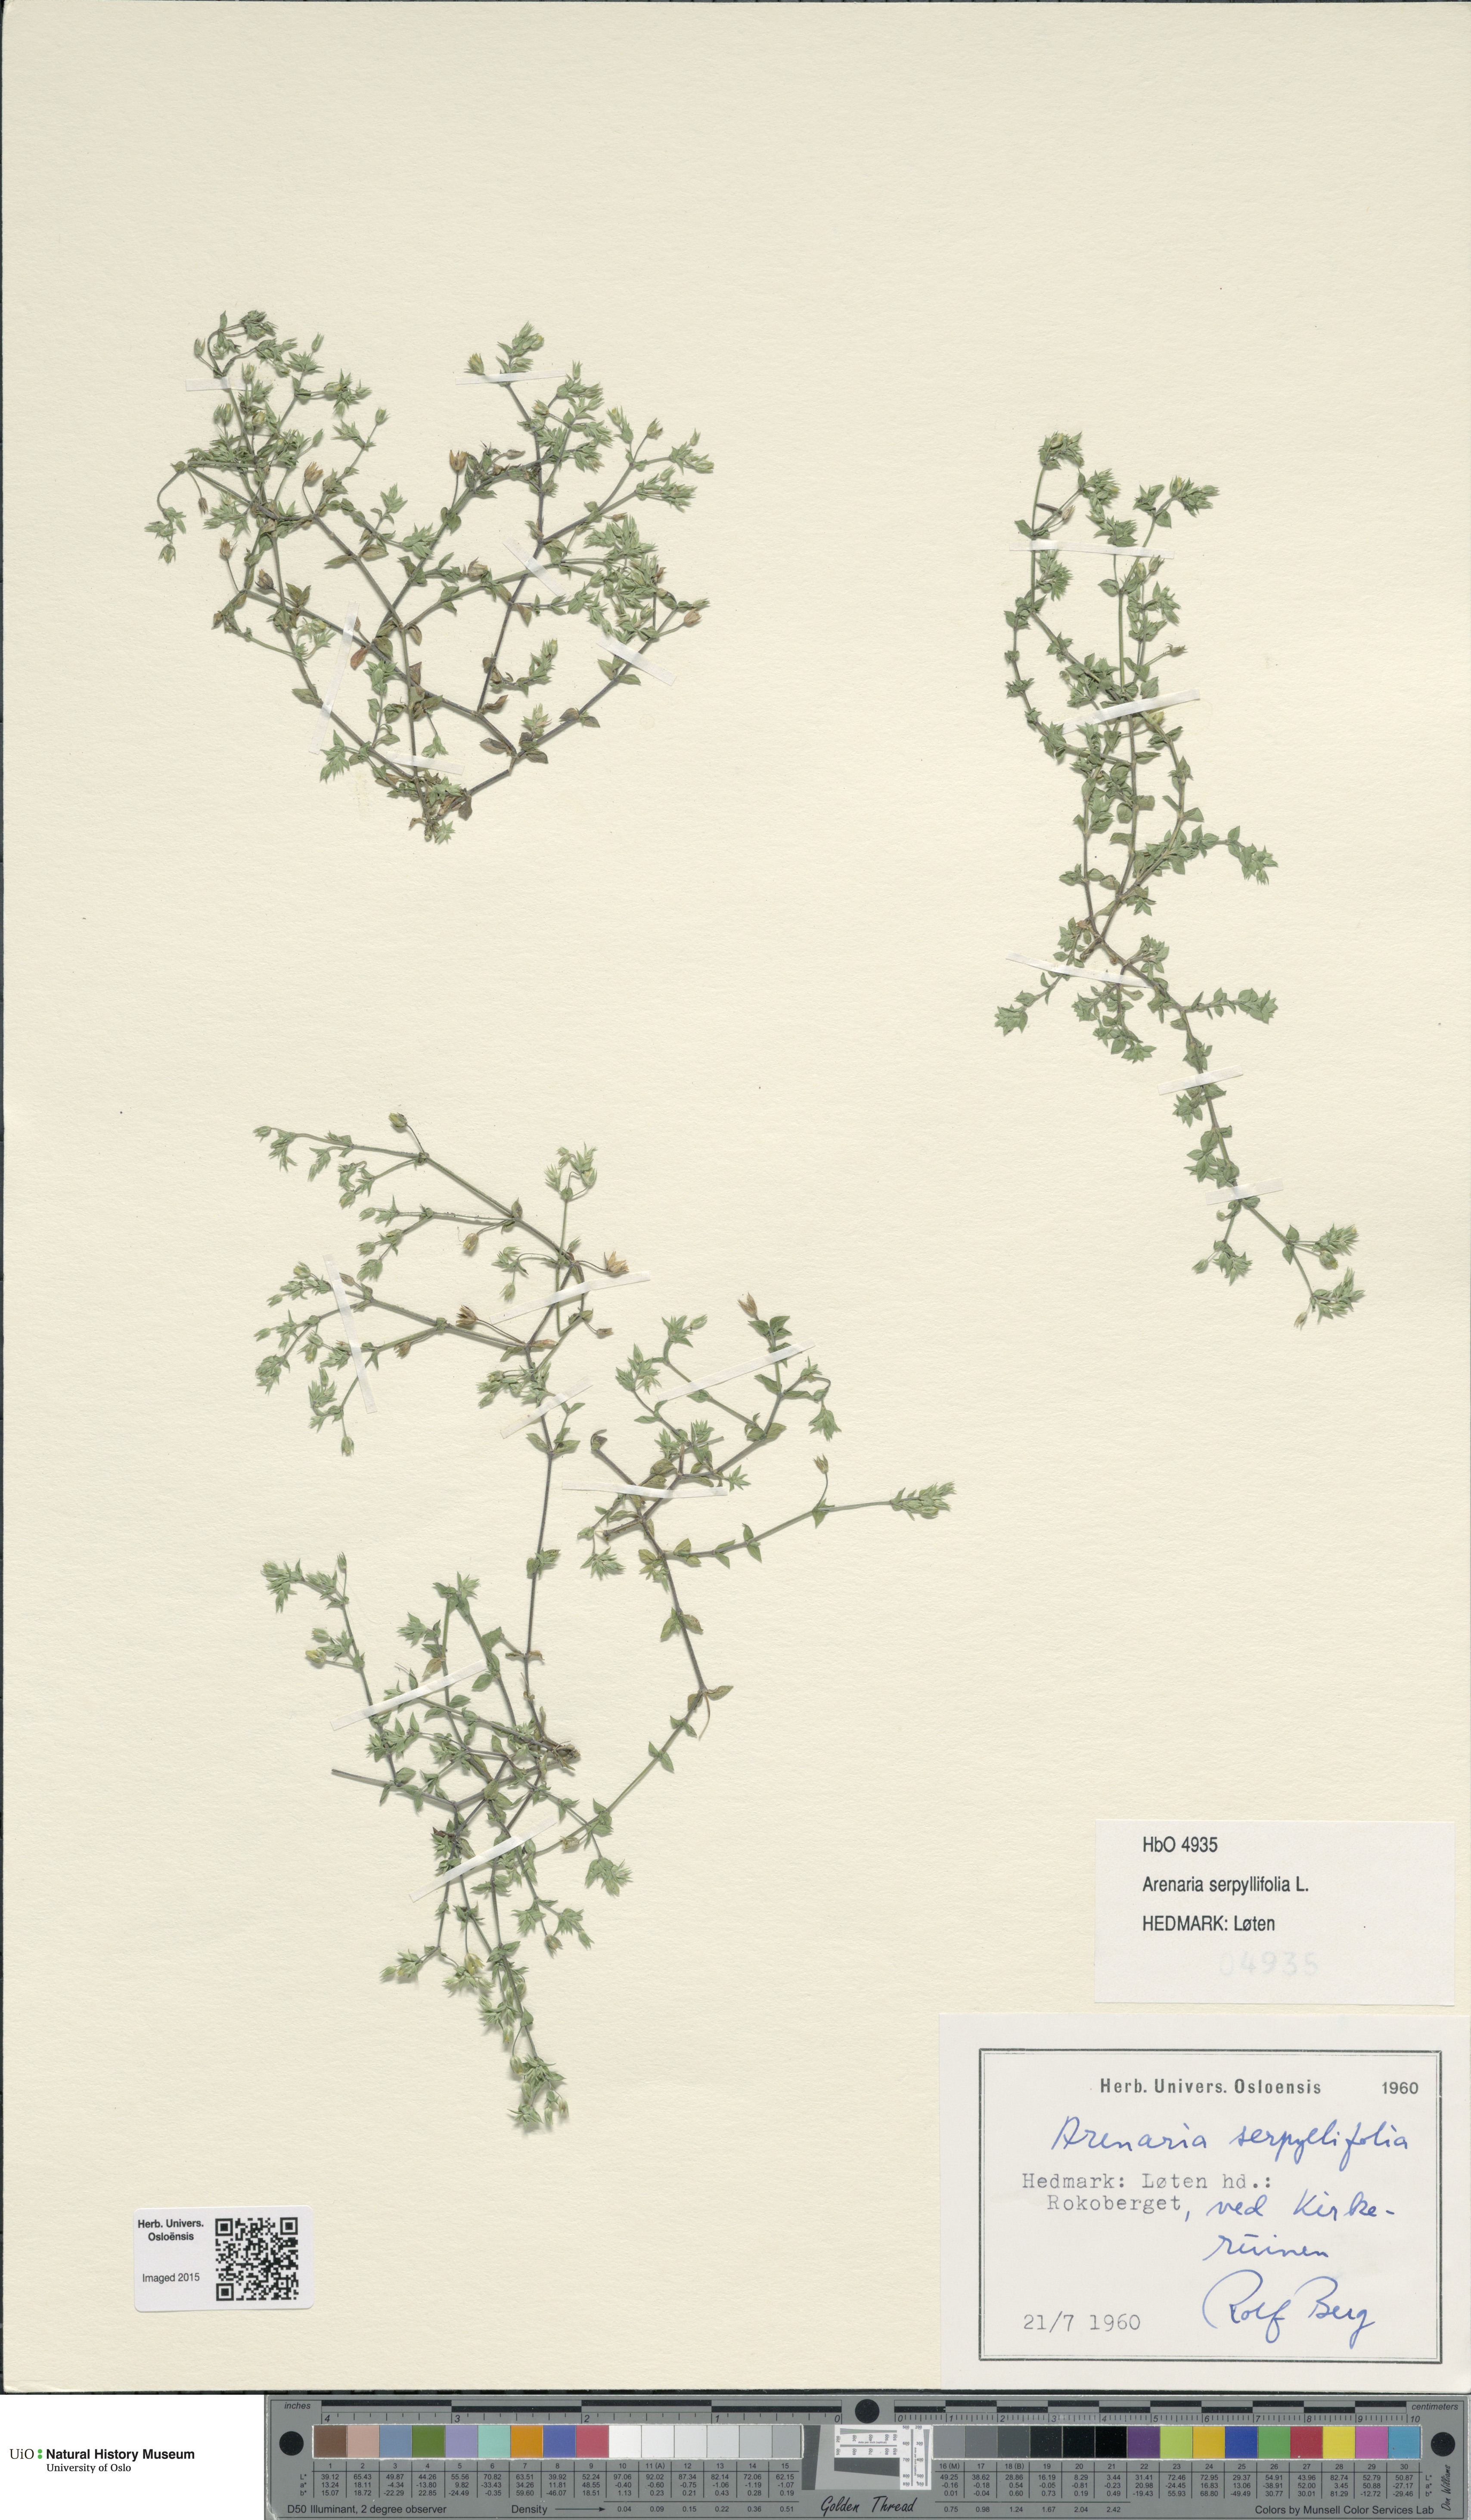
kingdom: Plantae
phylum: Tracheophyta
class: Magnoliopsida
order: Caryophyllales
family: Caryophyllaceae
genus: Arenaria
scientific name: Arenaria serpyllifolia
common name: Thyme-leaved sandwort
